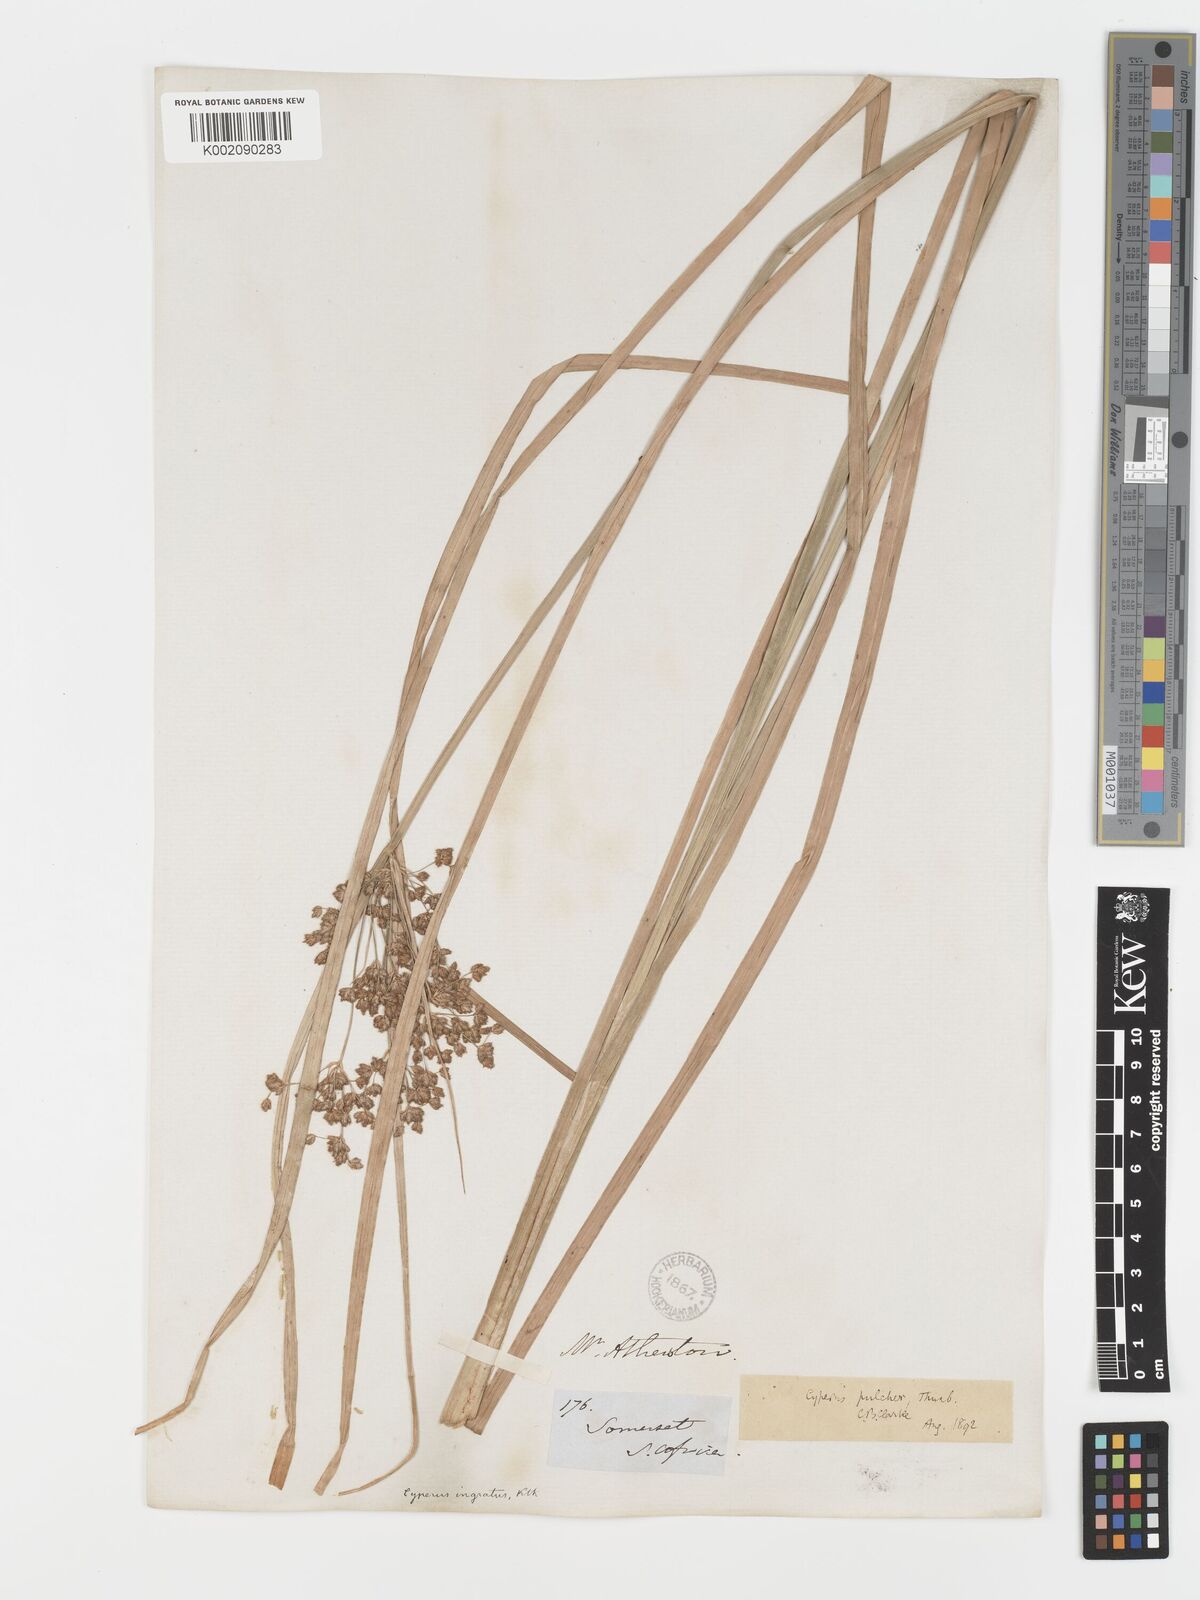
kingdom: Plantae
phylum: Tracheophyta
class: Liliopsida
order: Poales
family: Cyperaceae
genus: Cyperus
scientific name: Cyperus pulcher
